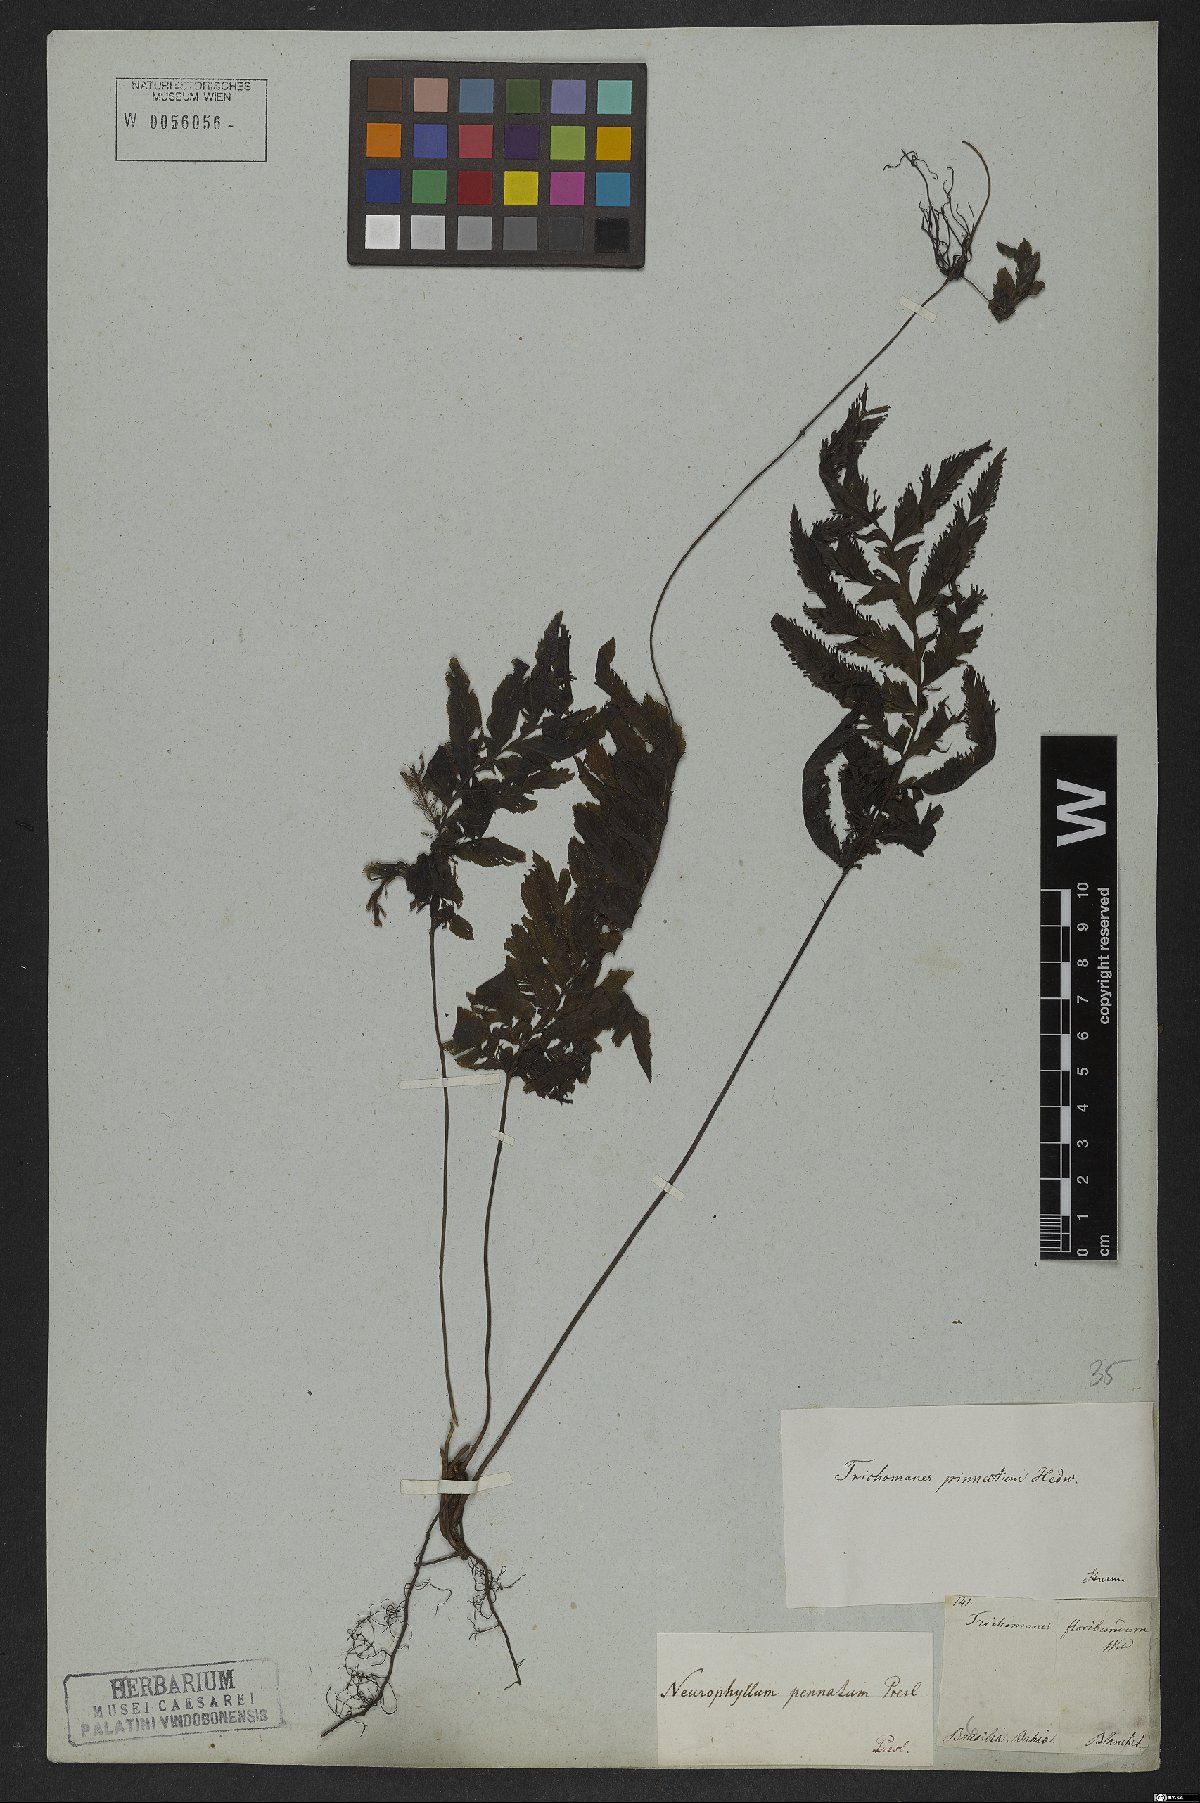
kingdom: Plantae
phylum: Tracheophyta
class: Polypodiopsida
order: Hymenophyllales
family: Hymenophyllaceae
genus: Trichomanes
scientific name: Trichomanes pinnatum
